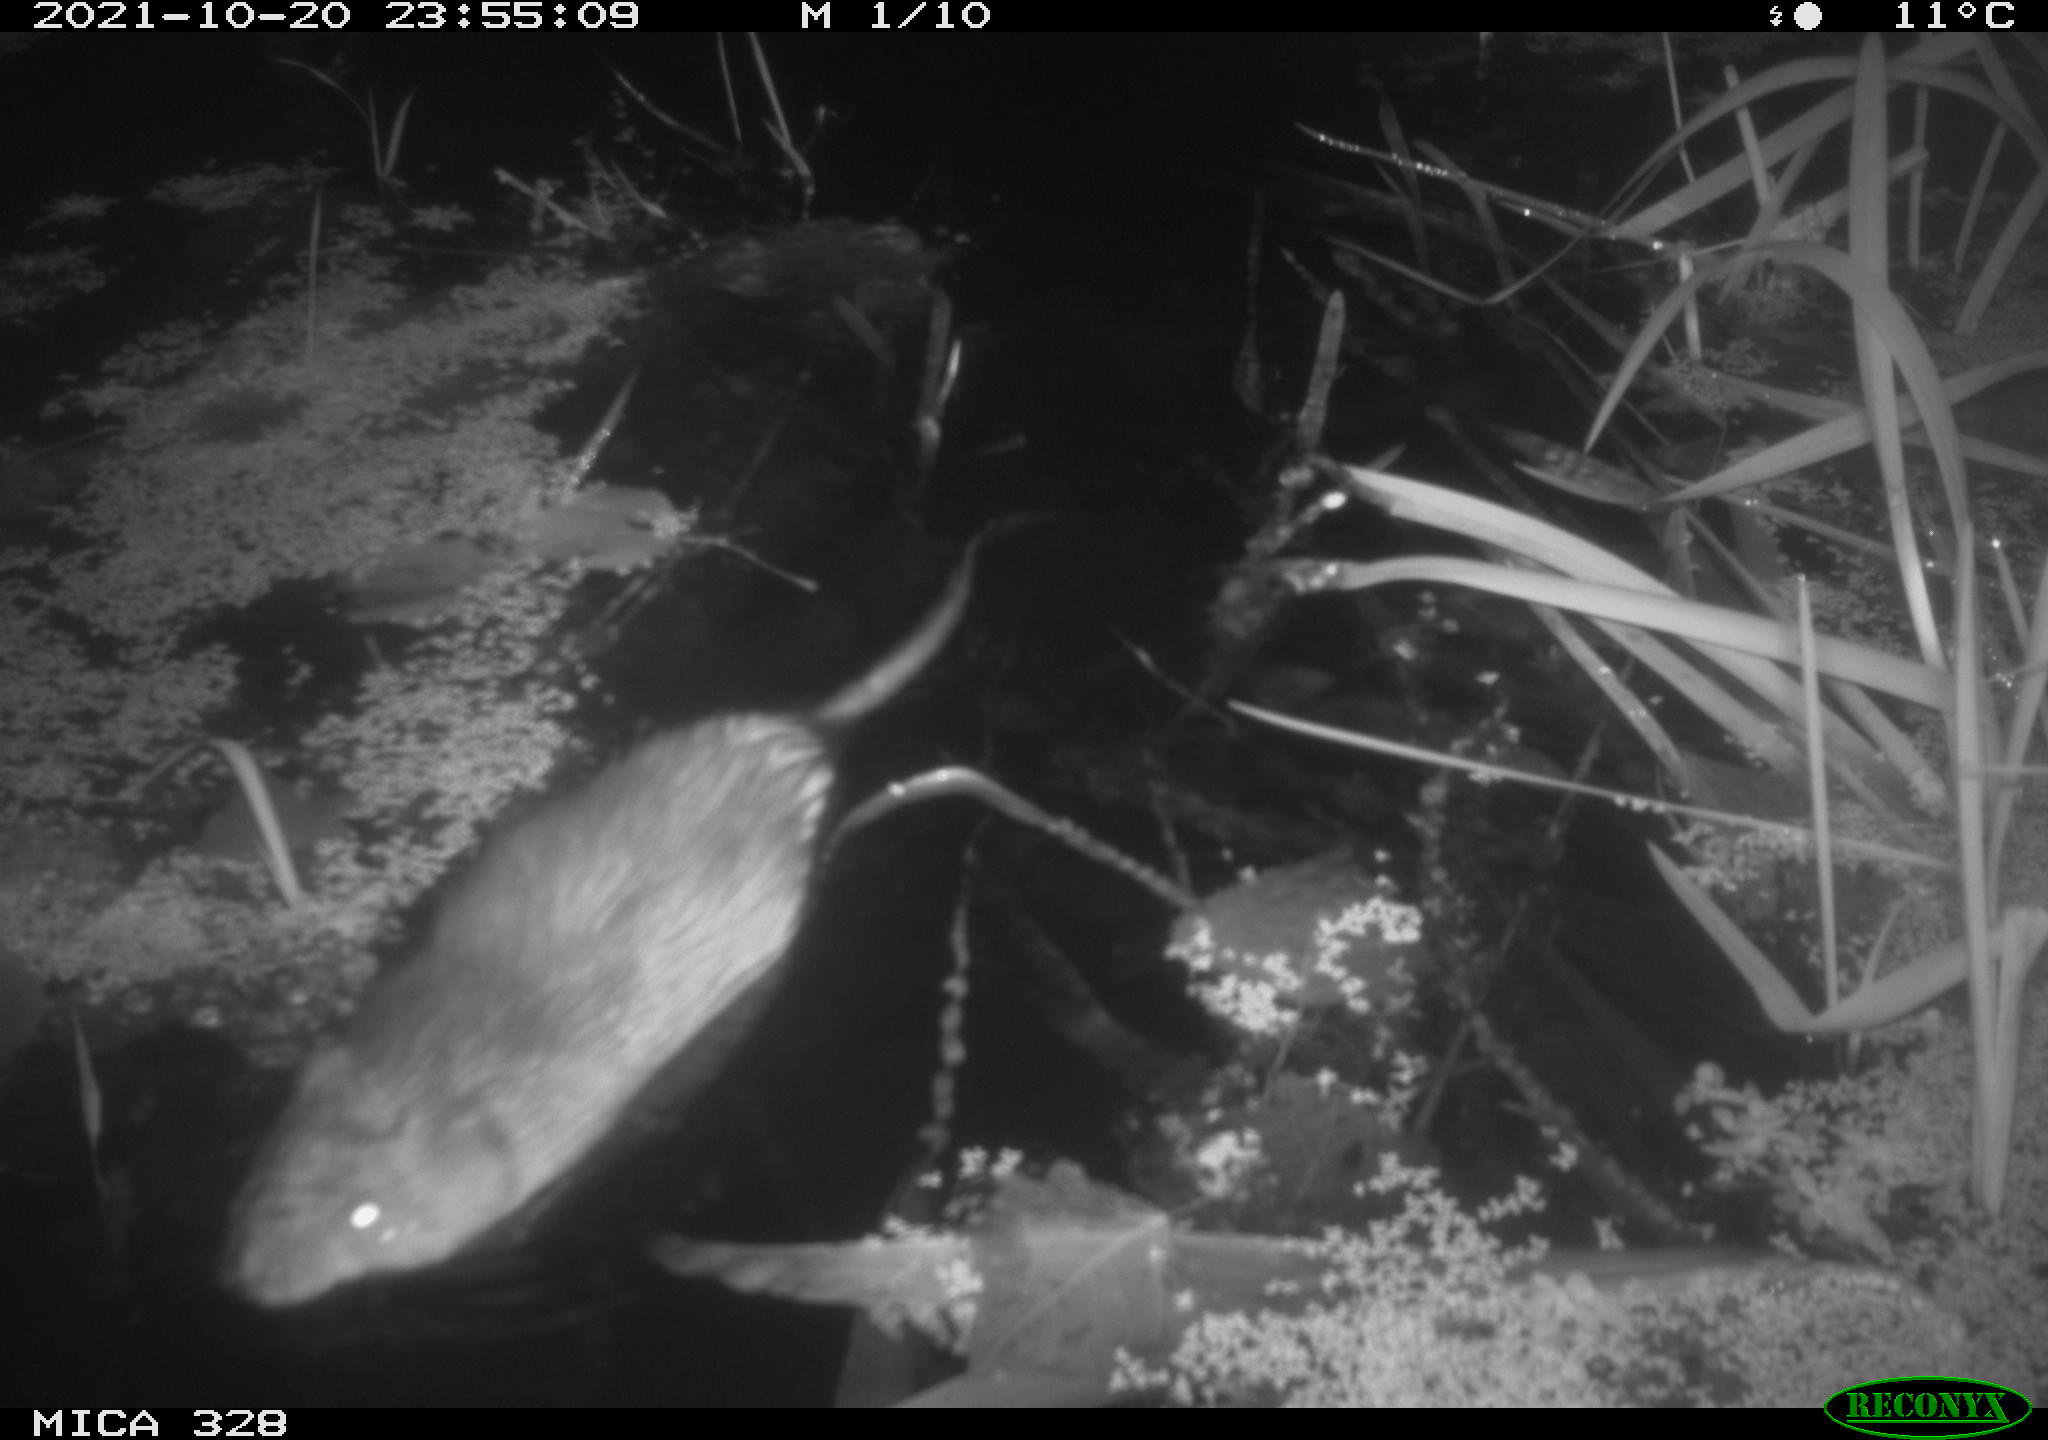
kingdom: Animalia
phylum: Chordata
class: Mammalia
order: Rodentia
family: Cricetidae
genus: Ondatra
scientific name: Ondatra zibethicus
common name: Muskrat
